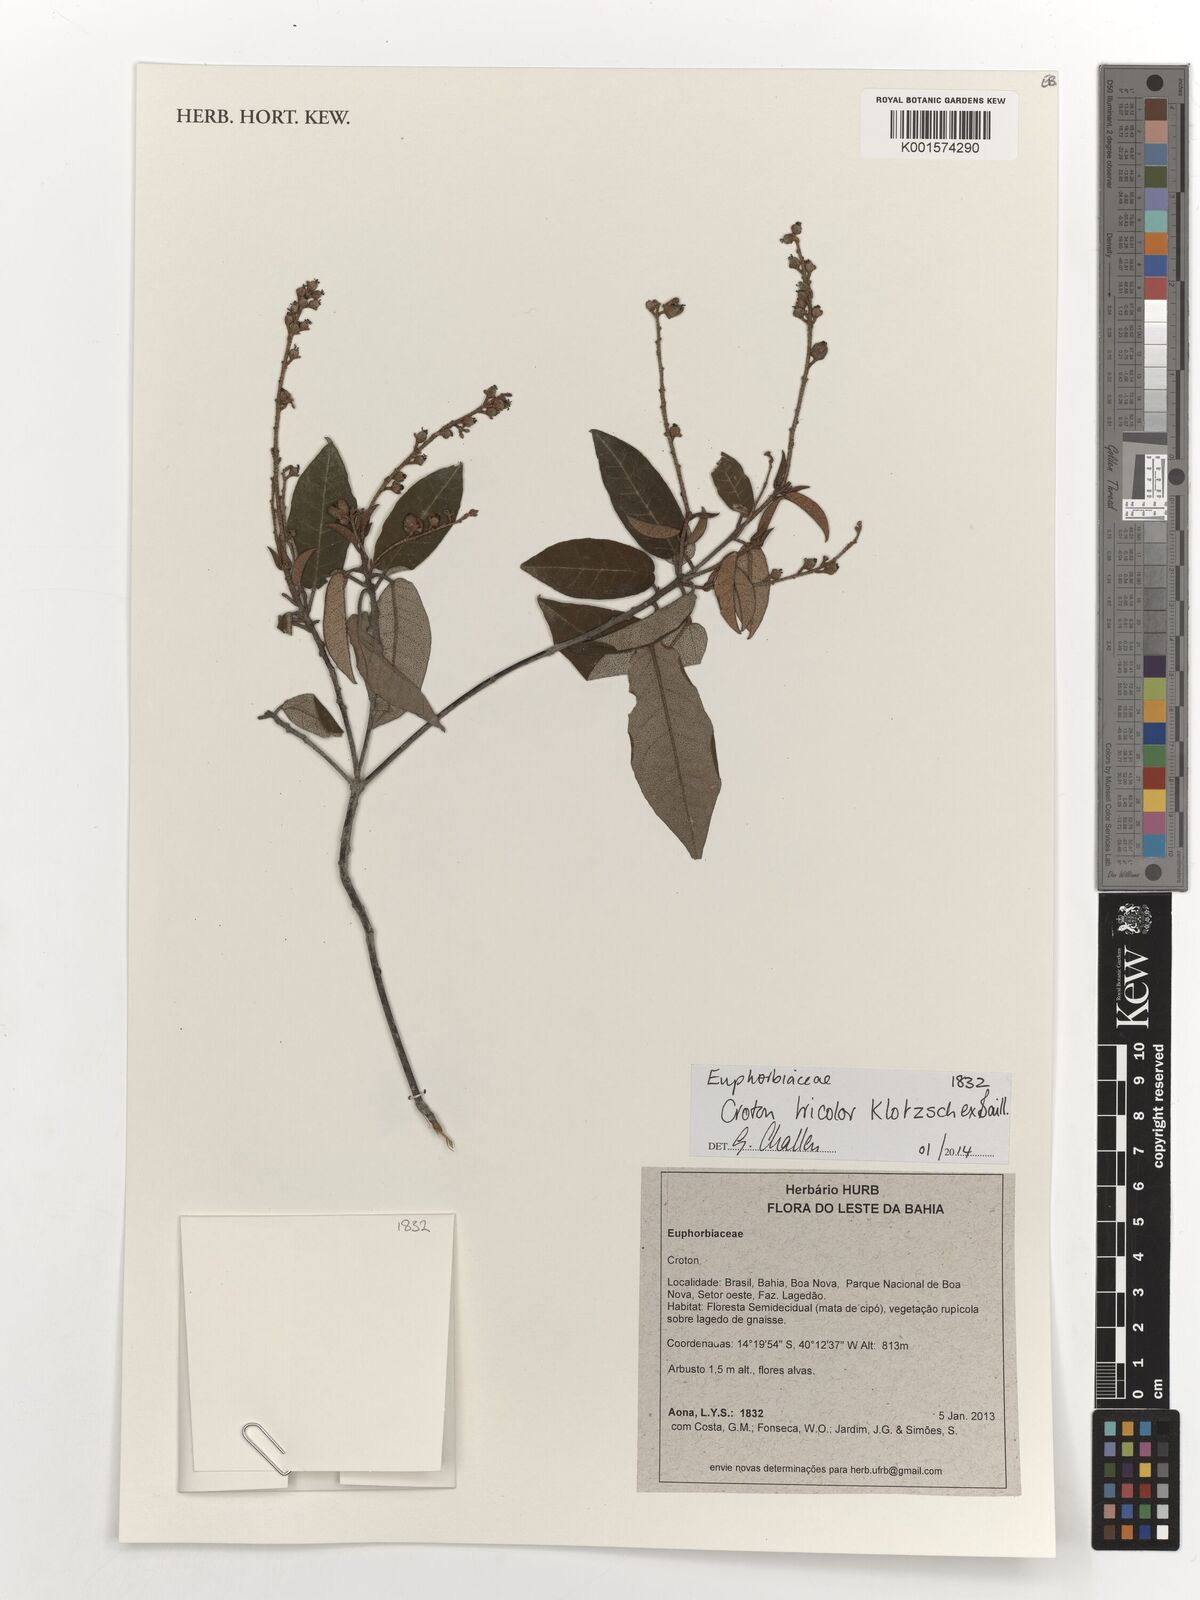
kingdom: Plantae
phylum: Tracheophyta
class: Magnoliopsida
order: Malpighiales
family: Euphorbiaceae
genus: Croton
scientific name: Croton tricolor
